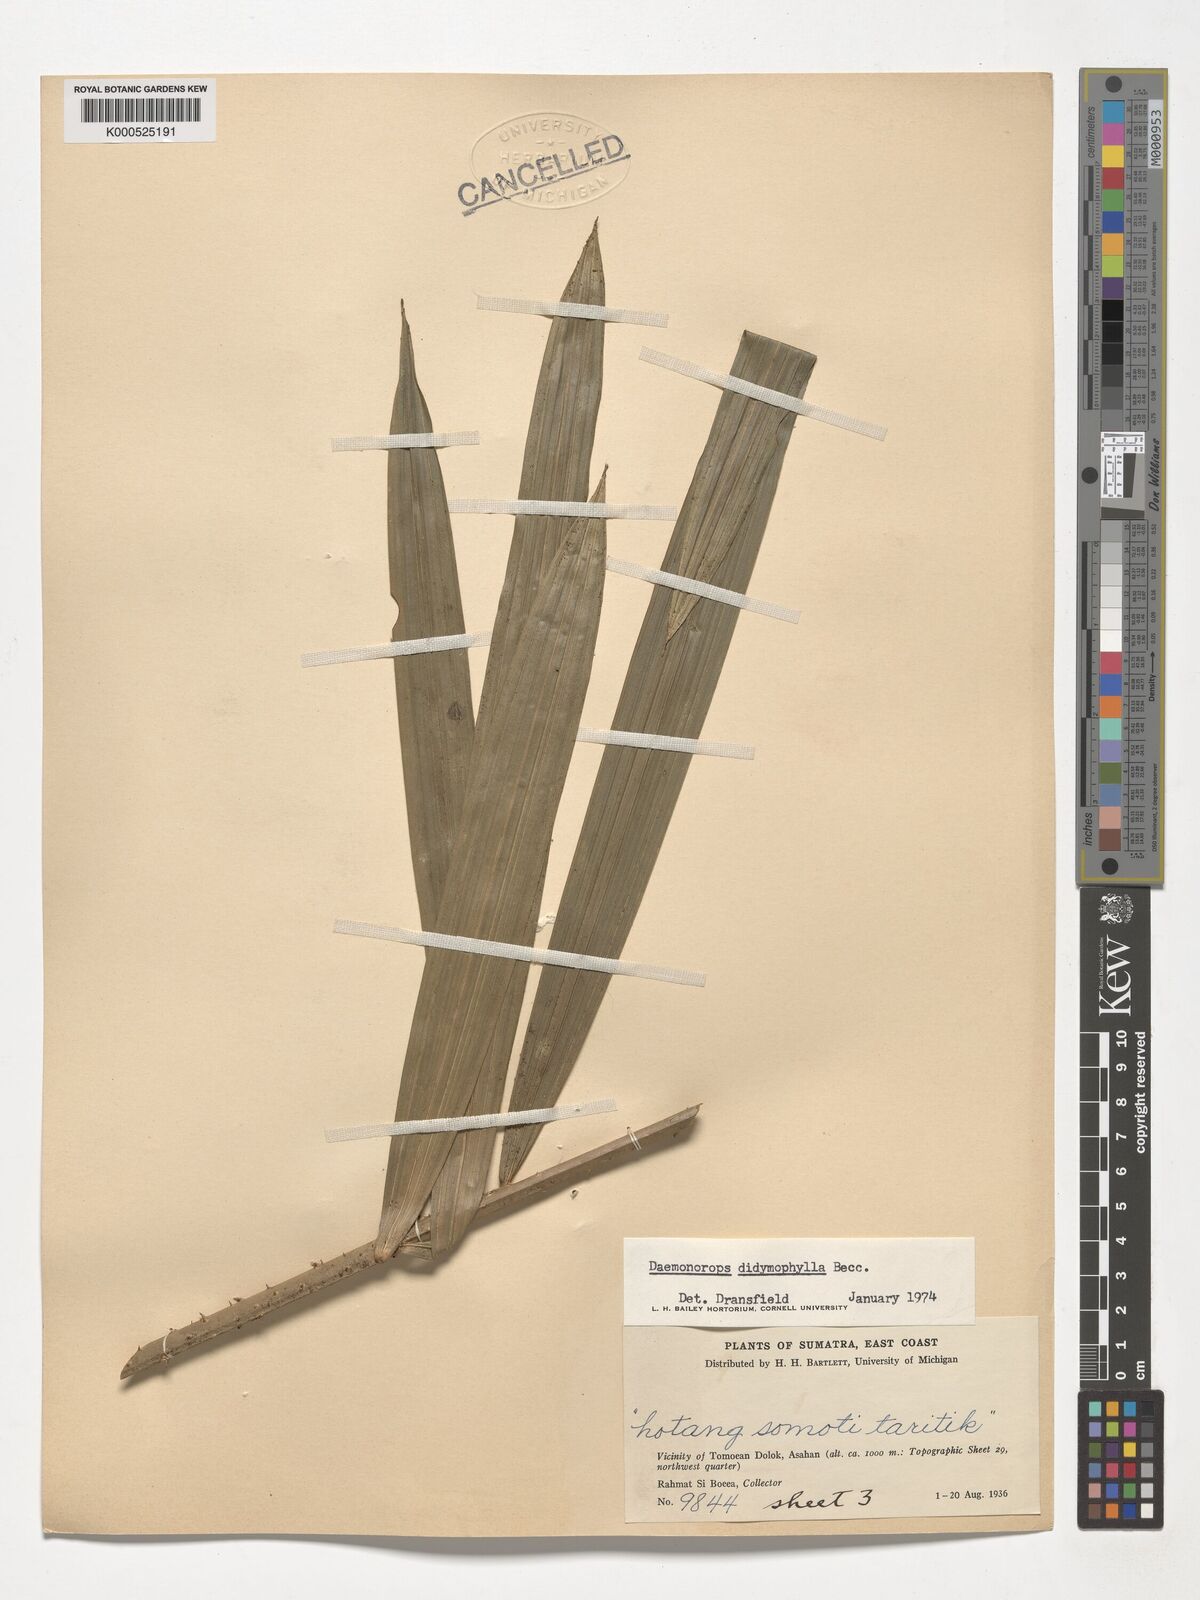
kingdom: Plantae
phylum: Tracheophyta
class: Liliopsida
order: Arecales
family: Arecaceae
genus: Calamus
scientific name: Calamus gracilipes
